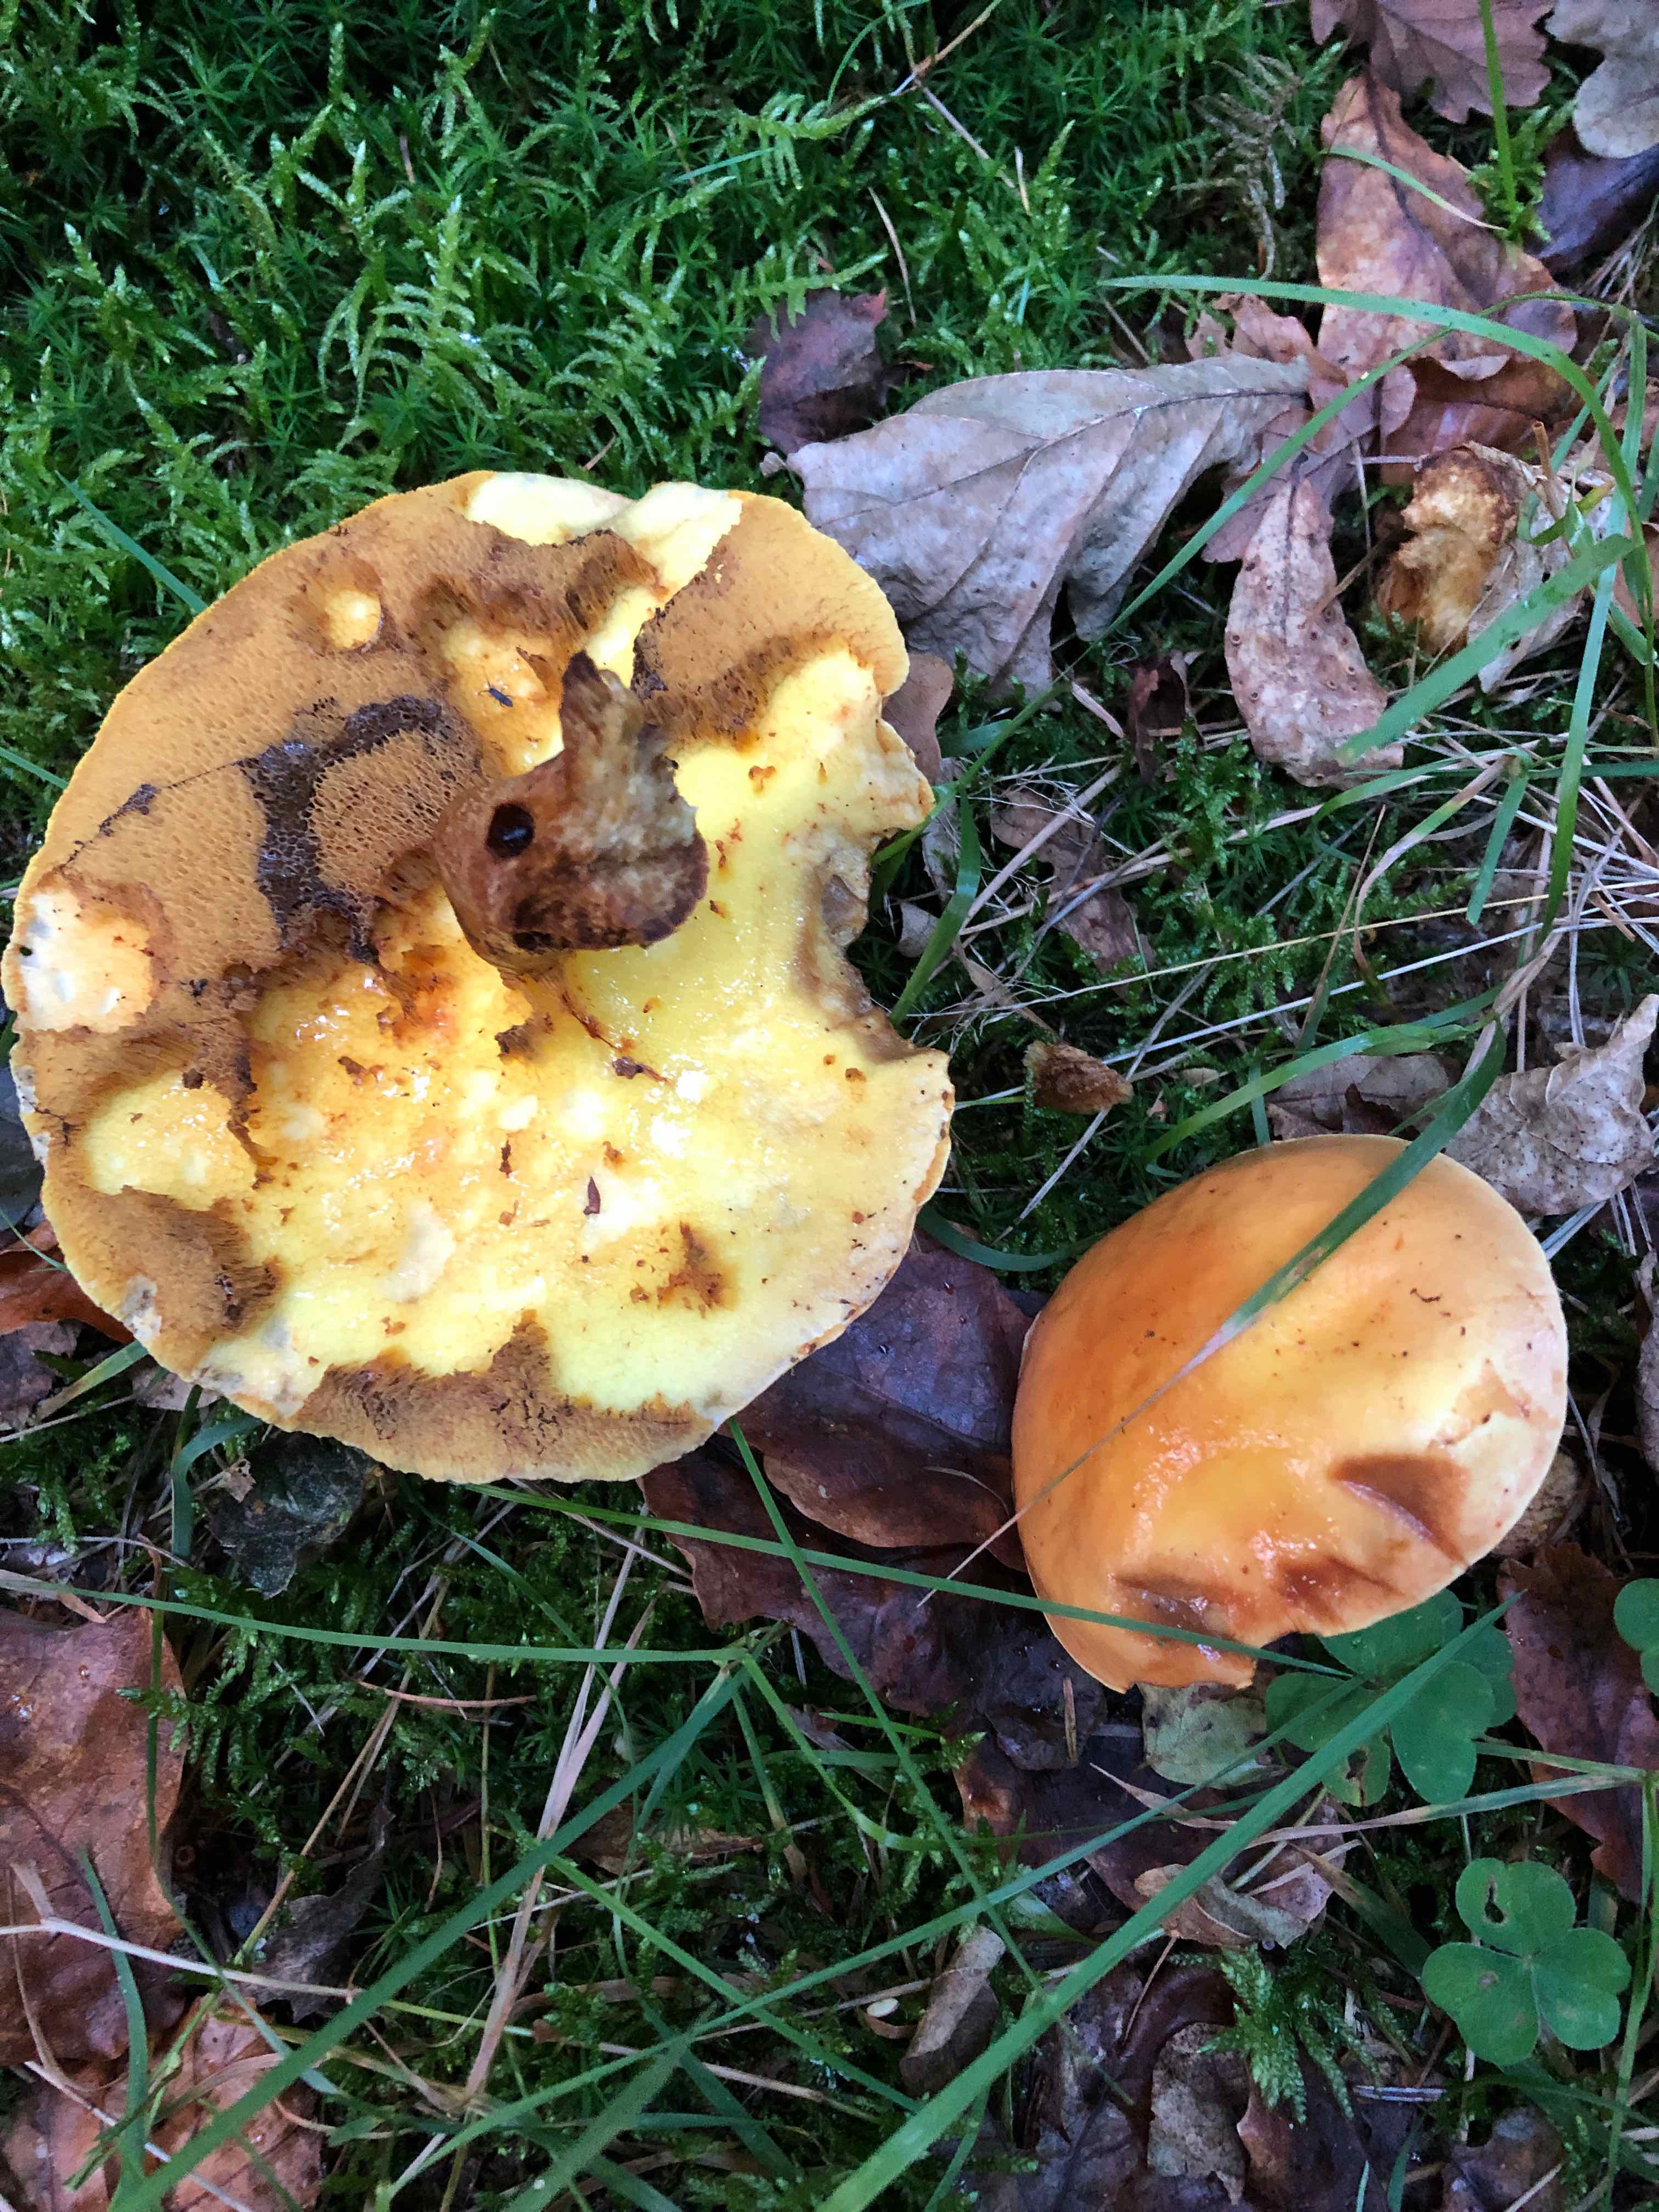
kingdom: Fungi
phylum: Basidiomycota
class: Agaricomycetes
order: Boletales
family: Suillaceae
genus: Suillus
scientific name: Suillus grevillei
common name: lærke-slimrørhat
